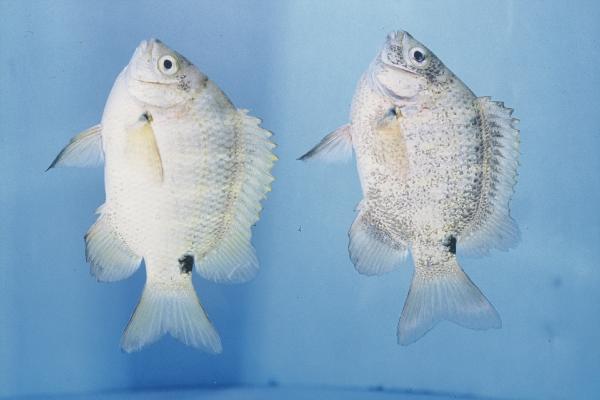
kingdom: Animalia
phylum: Chordata
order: Perciformes
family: Pomacentridae
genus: Abudefduf
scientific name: Abudefduf sordidus
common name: Blackspot sergeant
